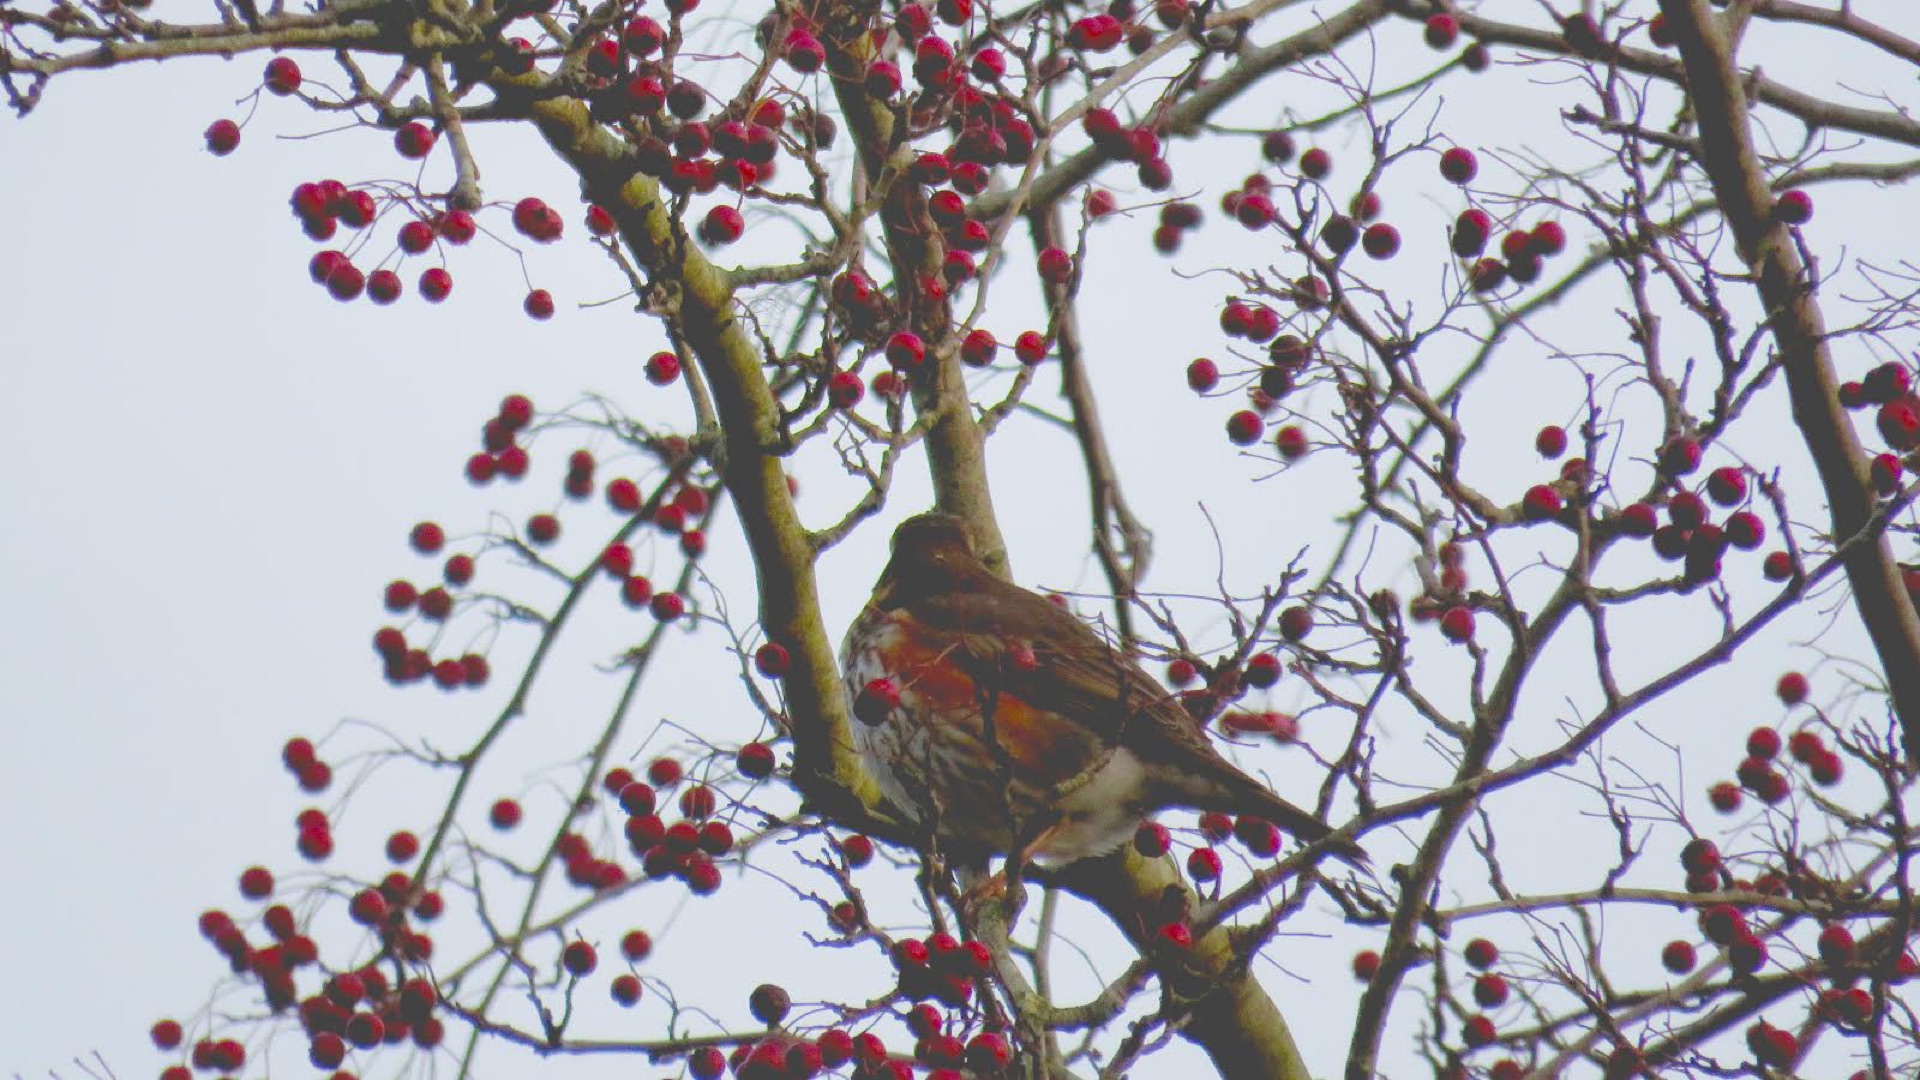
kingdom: Animalia
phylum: Chordata
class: Aves
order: Passeriformes
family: Turdidae
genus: Turdus
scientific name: Turdus iliacus
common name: Vindrossel
